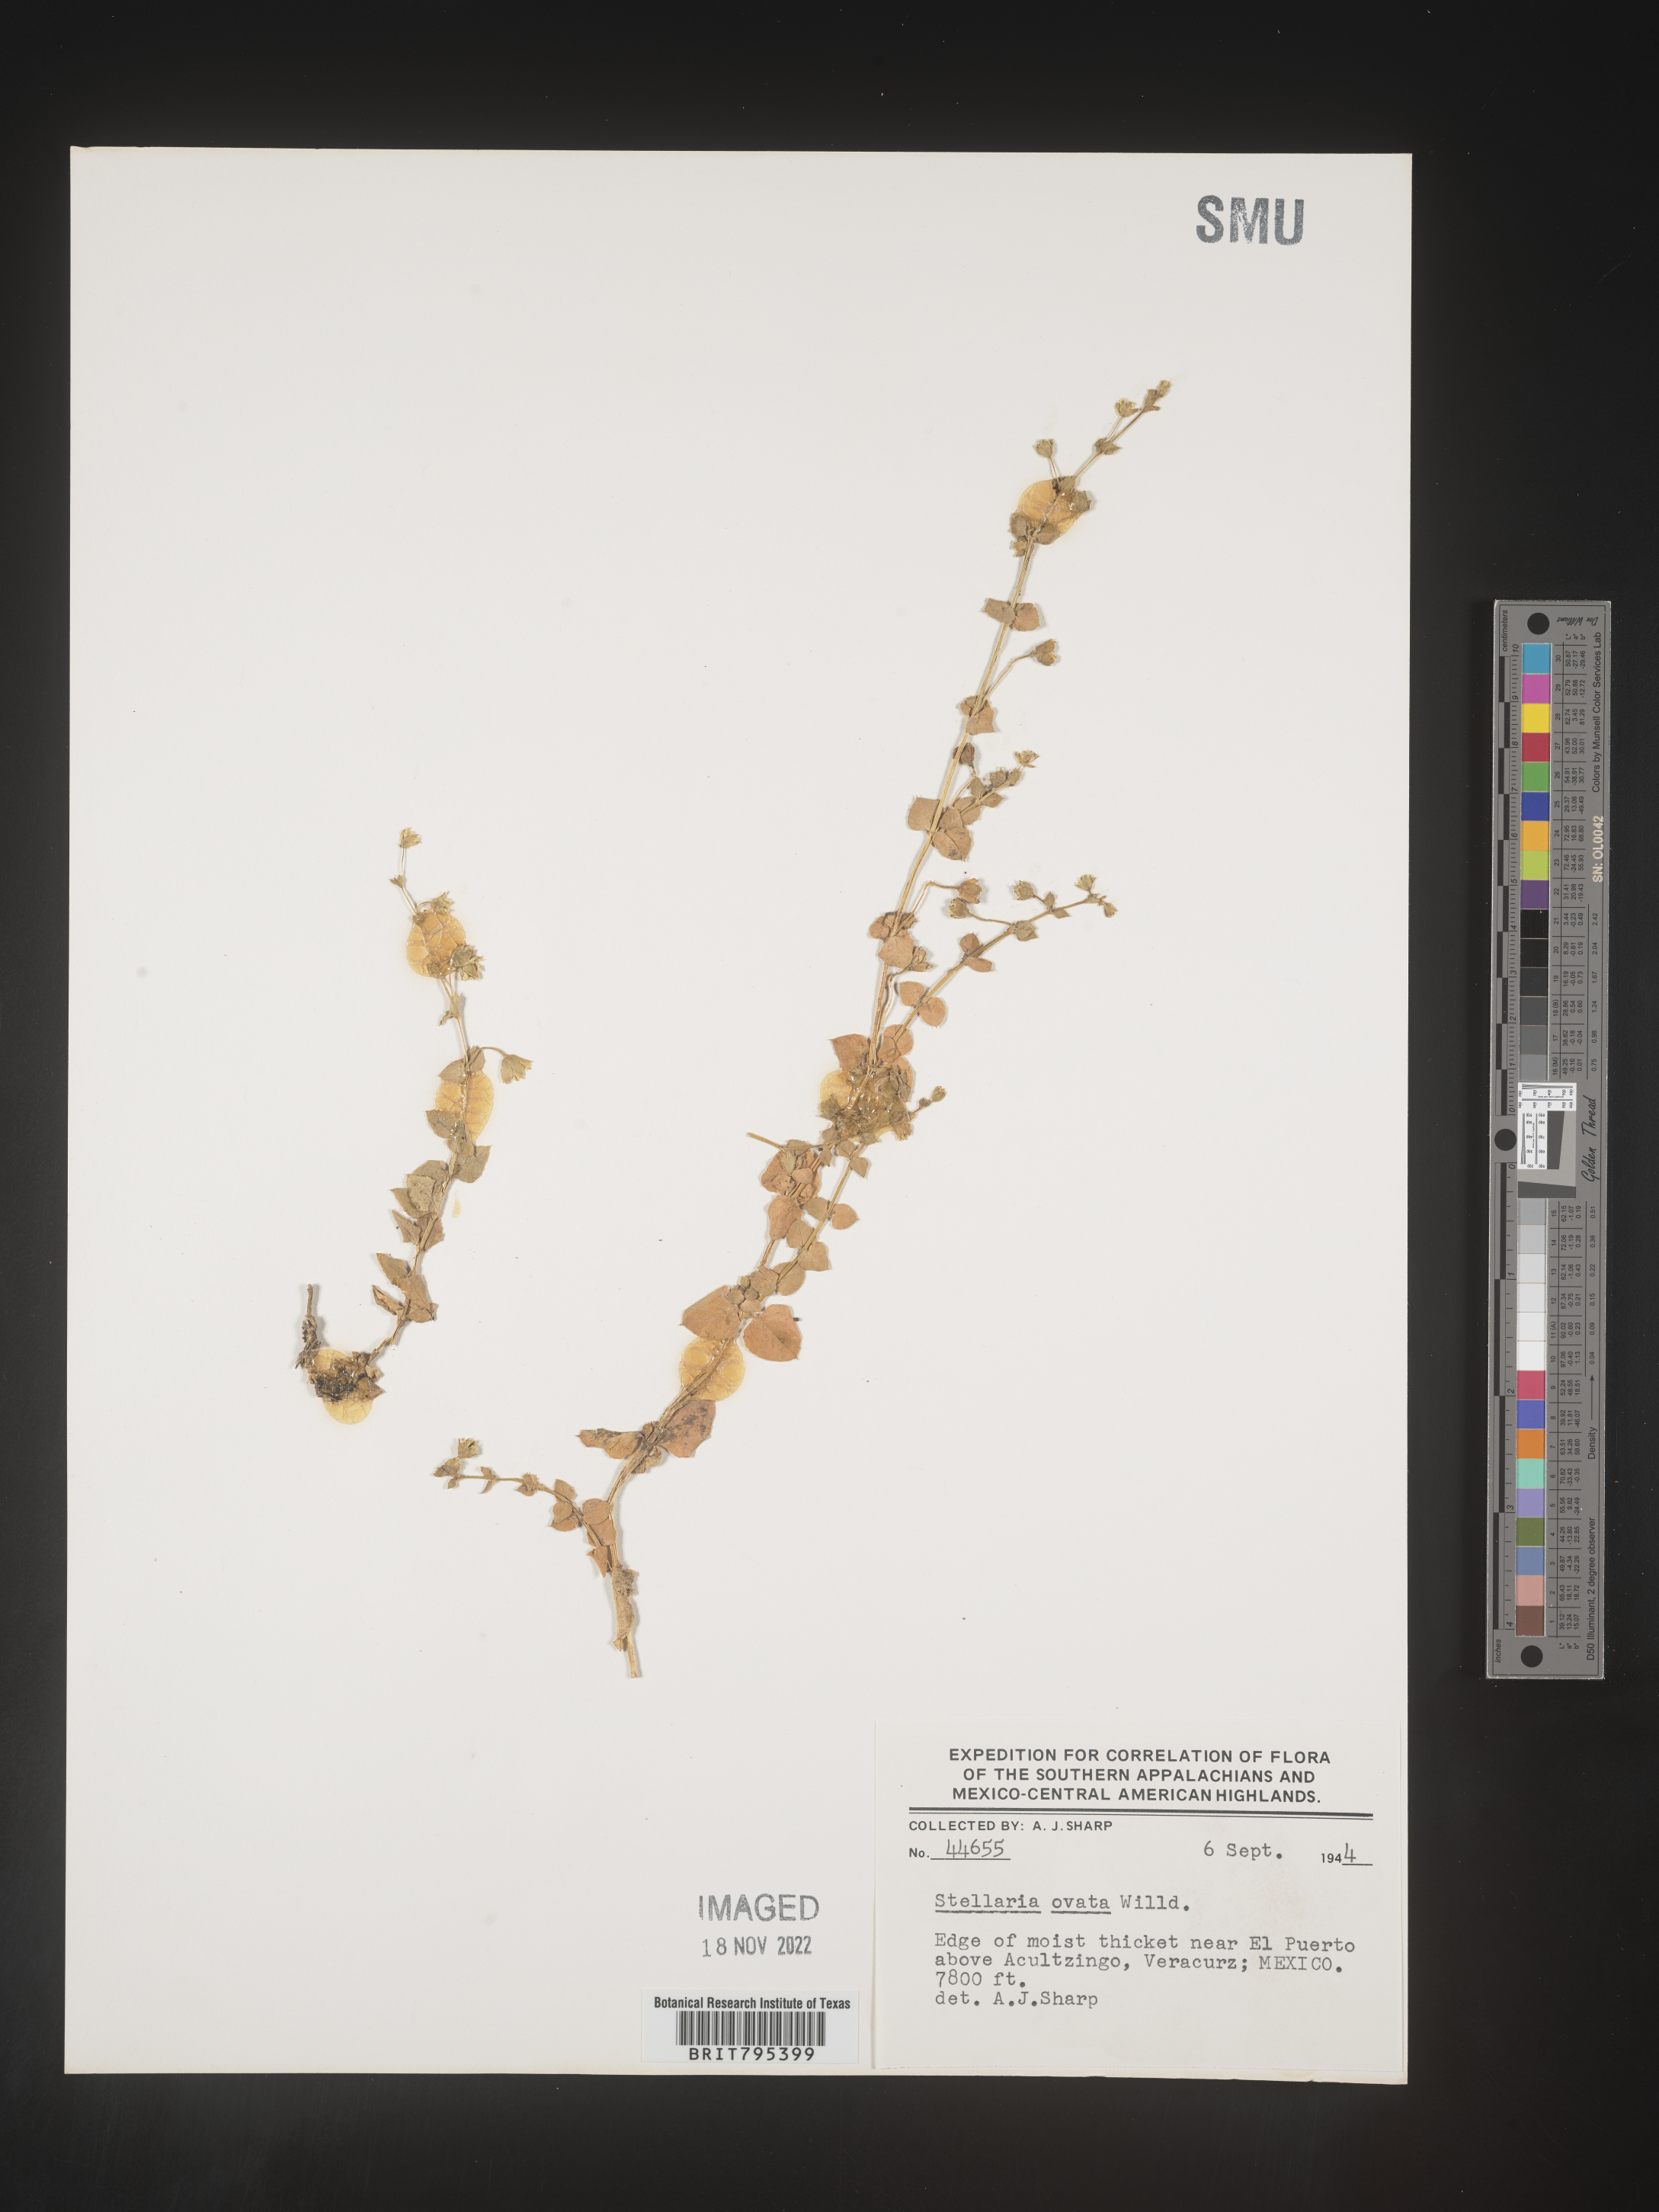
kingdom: Plantae
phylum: Tracheophyta
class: Magnoliopsida
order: Caryophyllales
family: Caryophyllaceae
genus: Stellaria
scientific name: Stellaria
